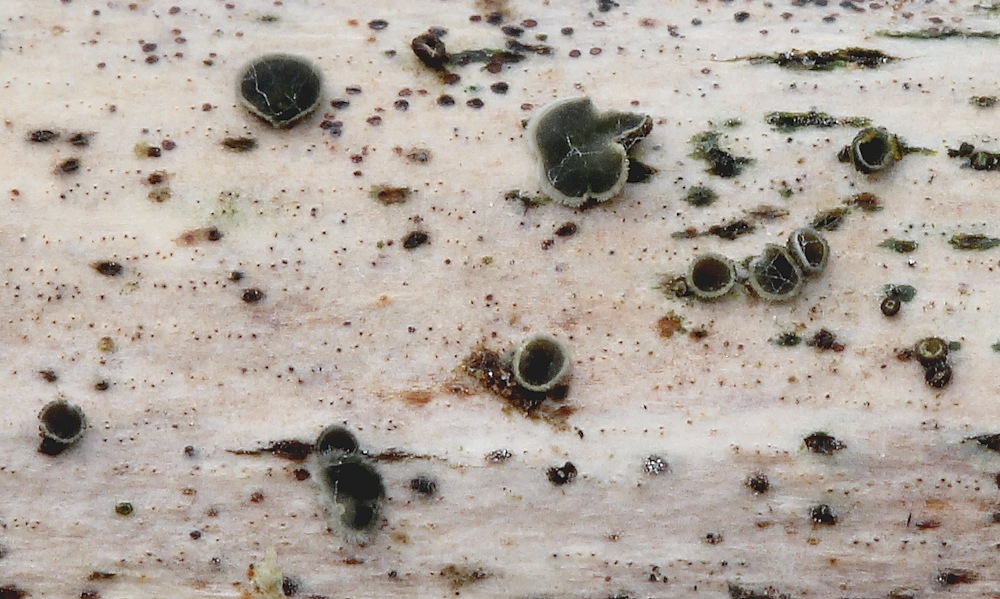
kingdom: Fungi
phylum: Ascomycota
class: Leotiomycetes
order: Helotiales
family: Mollisiaceae
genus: Mollisia
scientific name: Mollisia
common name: gråskive
